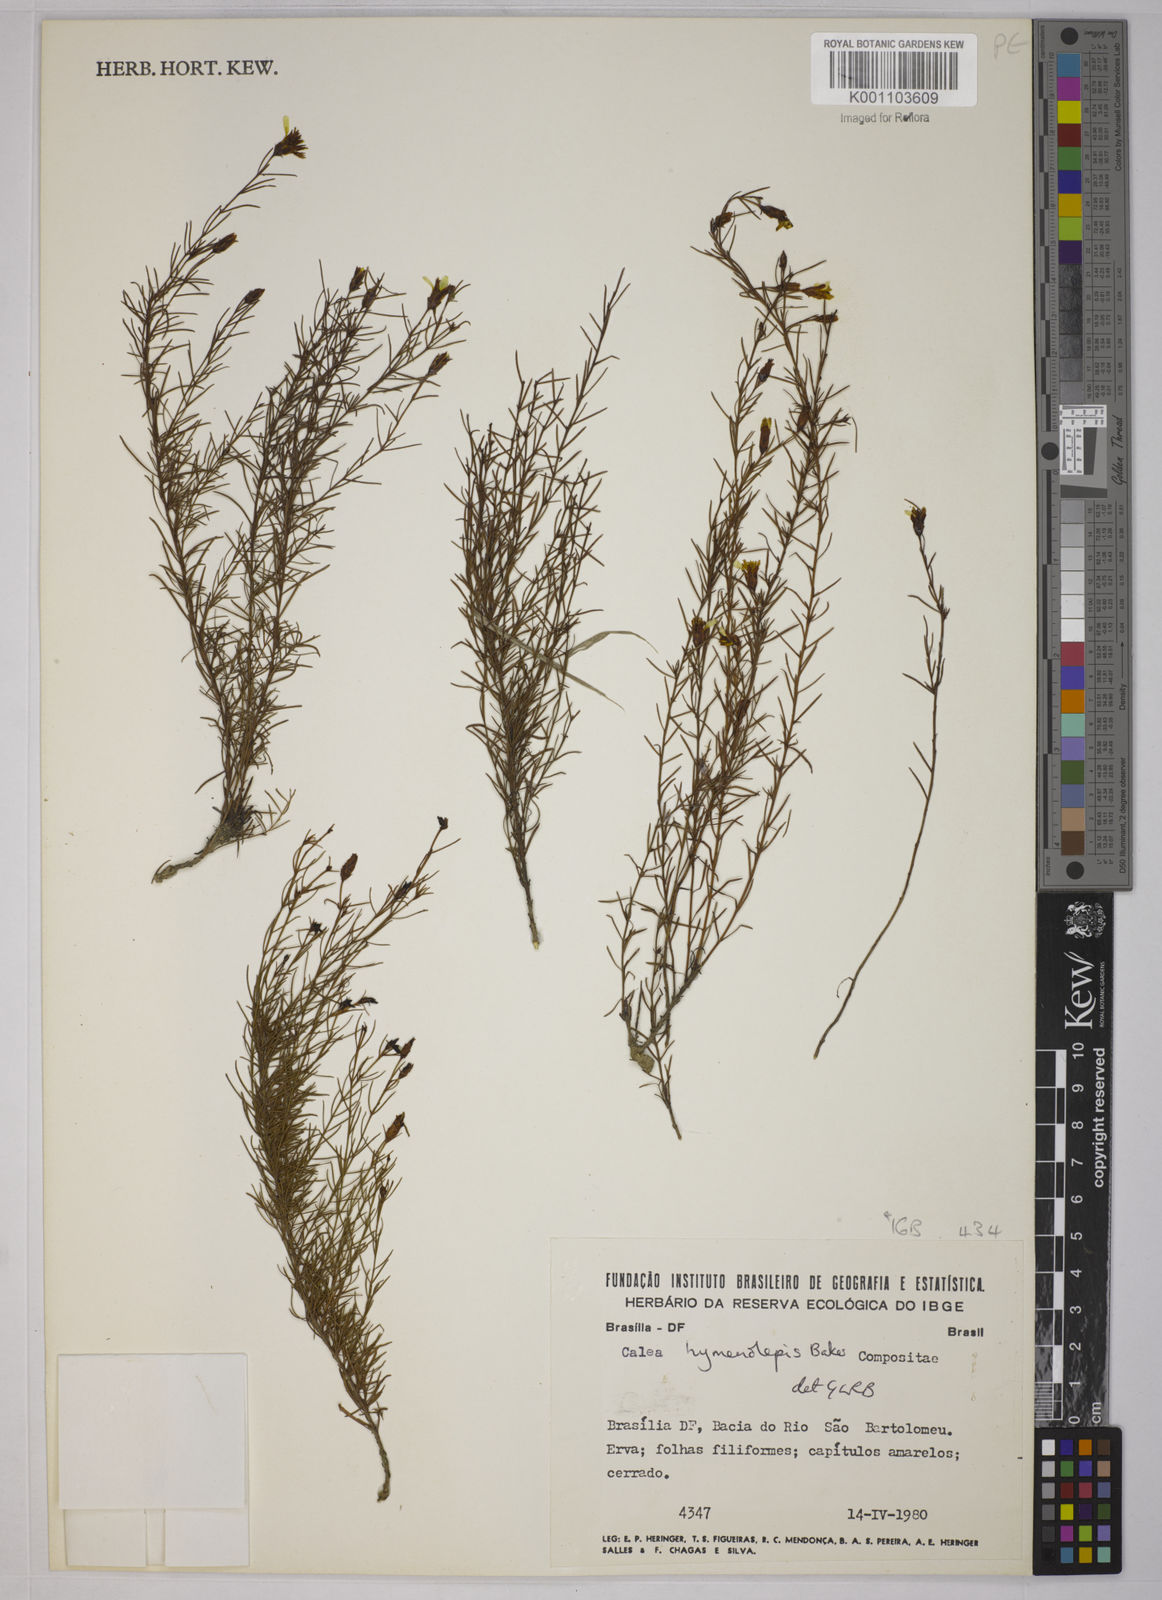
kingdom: Plantae
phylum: Tracheophyta
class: Magnoliopsida
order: Asterales
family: Asteraceae
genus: Calea
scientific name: Calea hymenolepis
